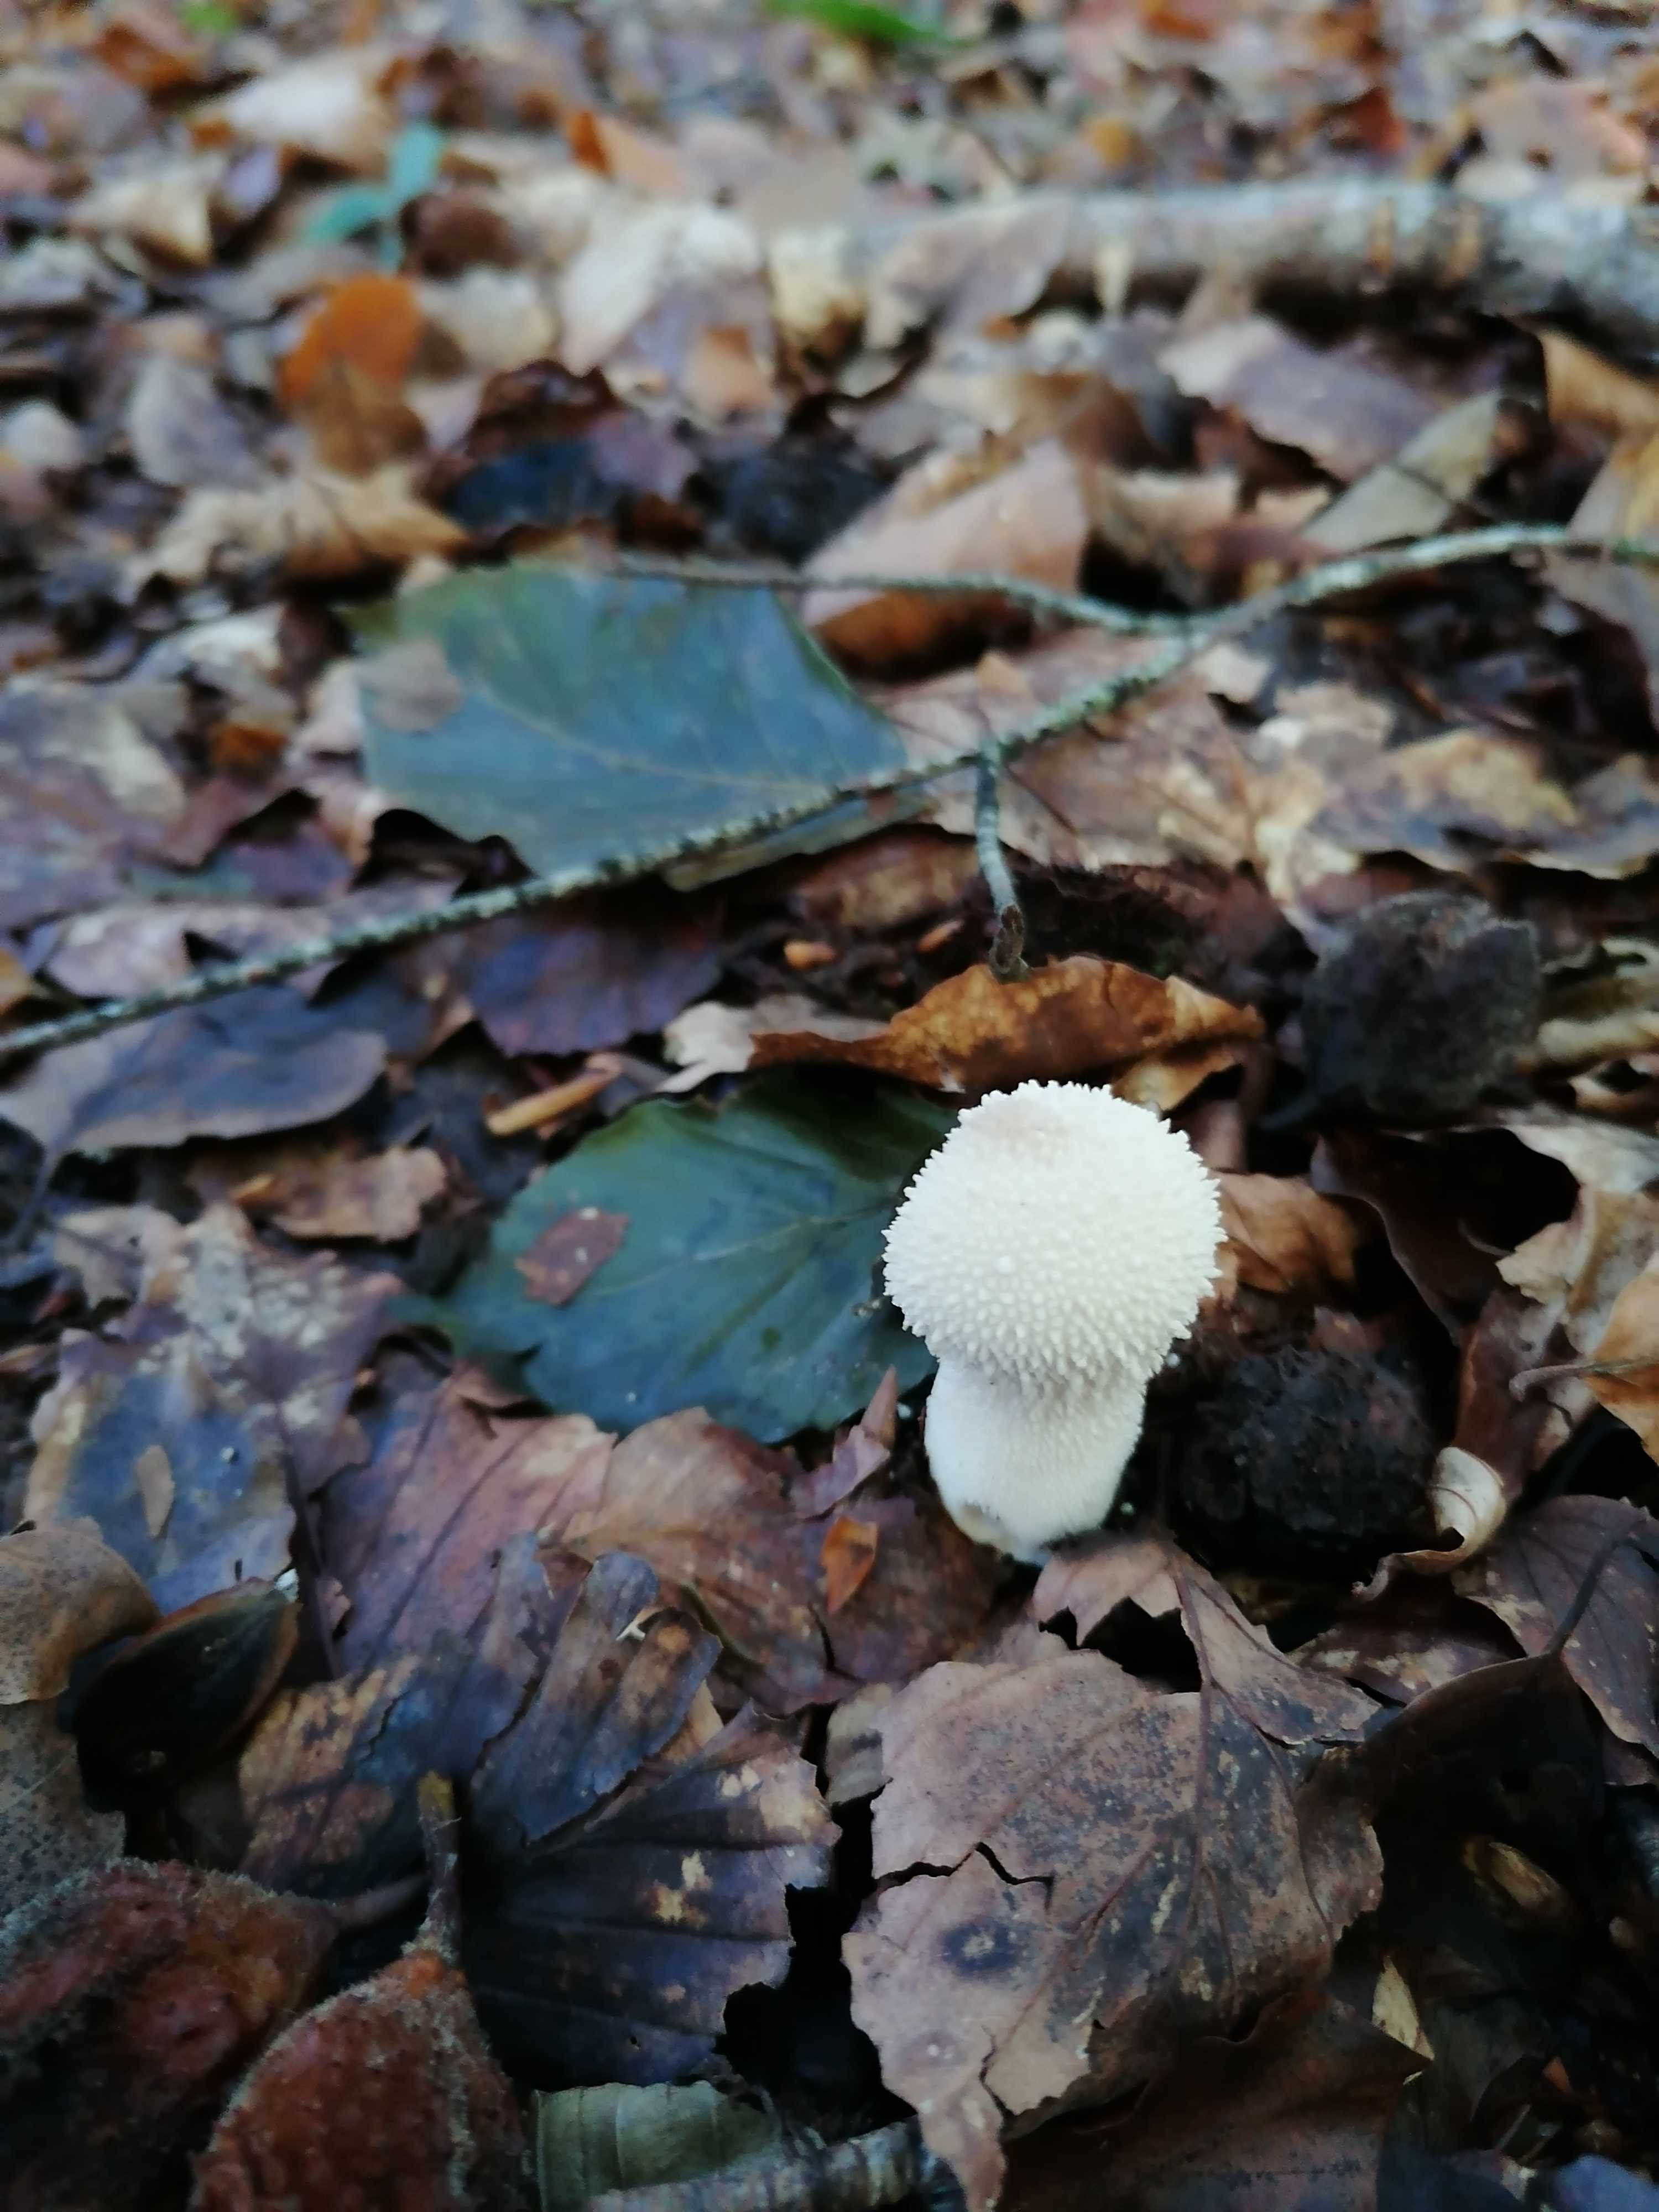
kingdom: Fungi
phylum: Basidiomycota
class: Agaricomycetes
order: Agaricales
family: Lycoperdaceae
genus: Lycoperdon
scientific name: Lycoperdon perlatum
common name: krystal-støvbold
